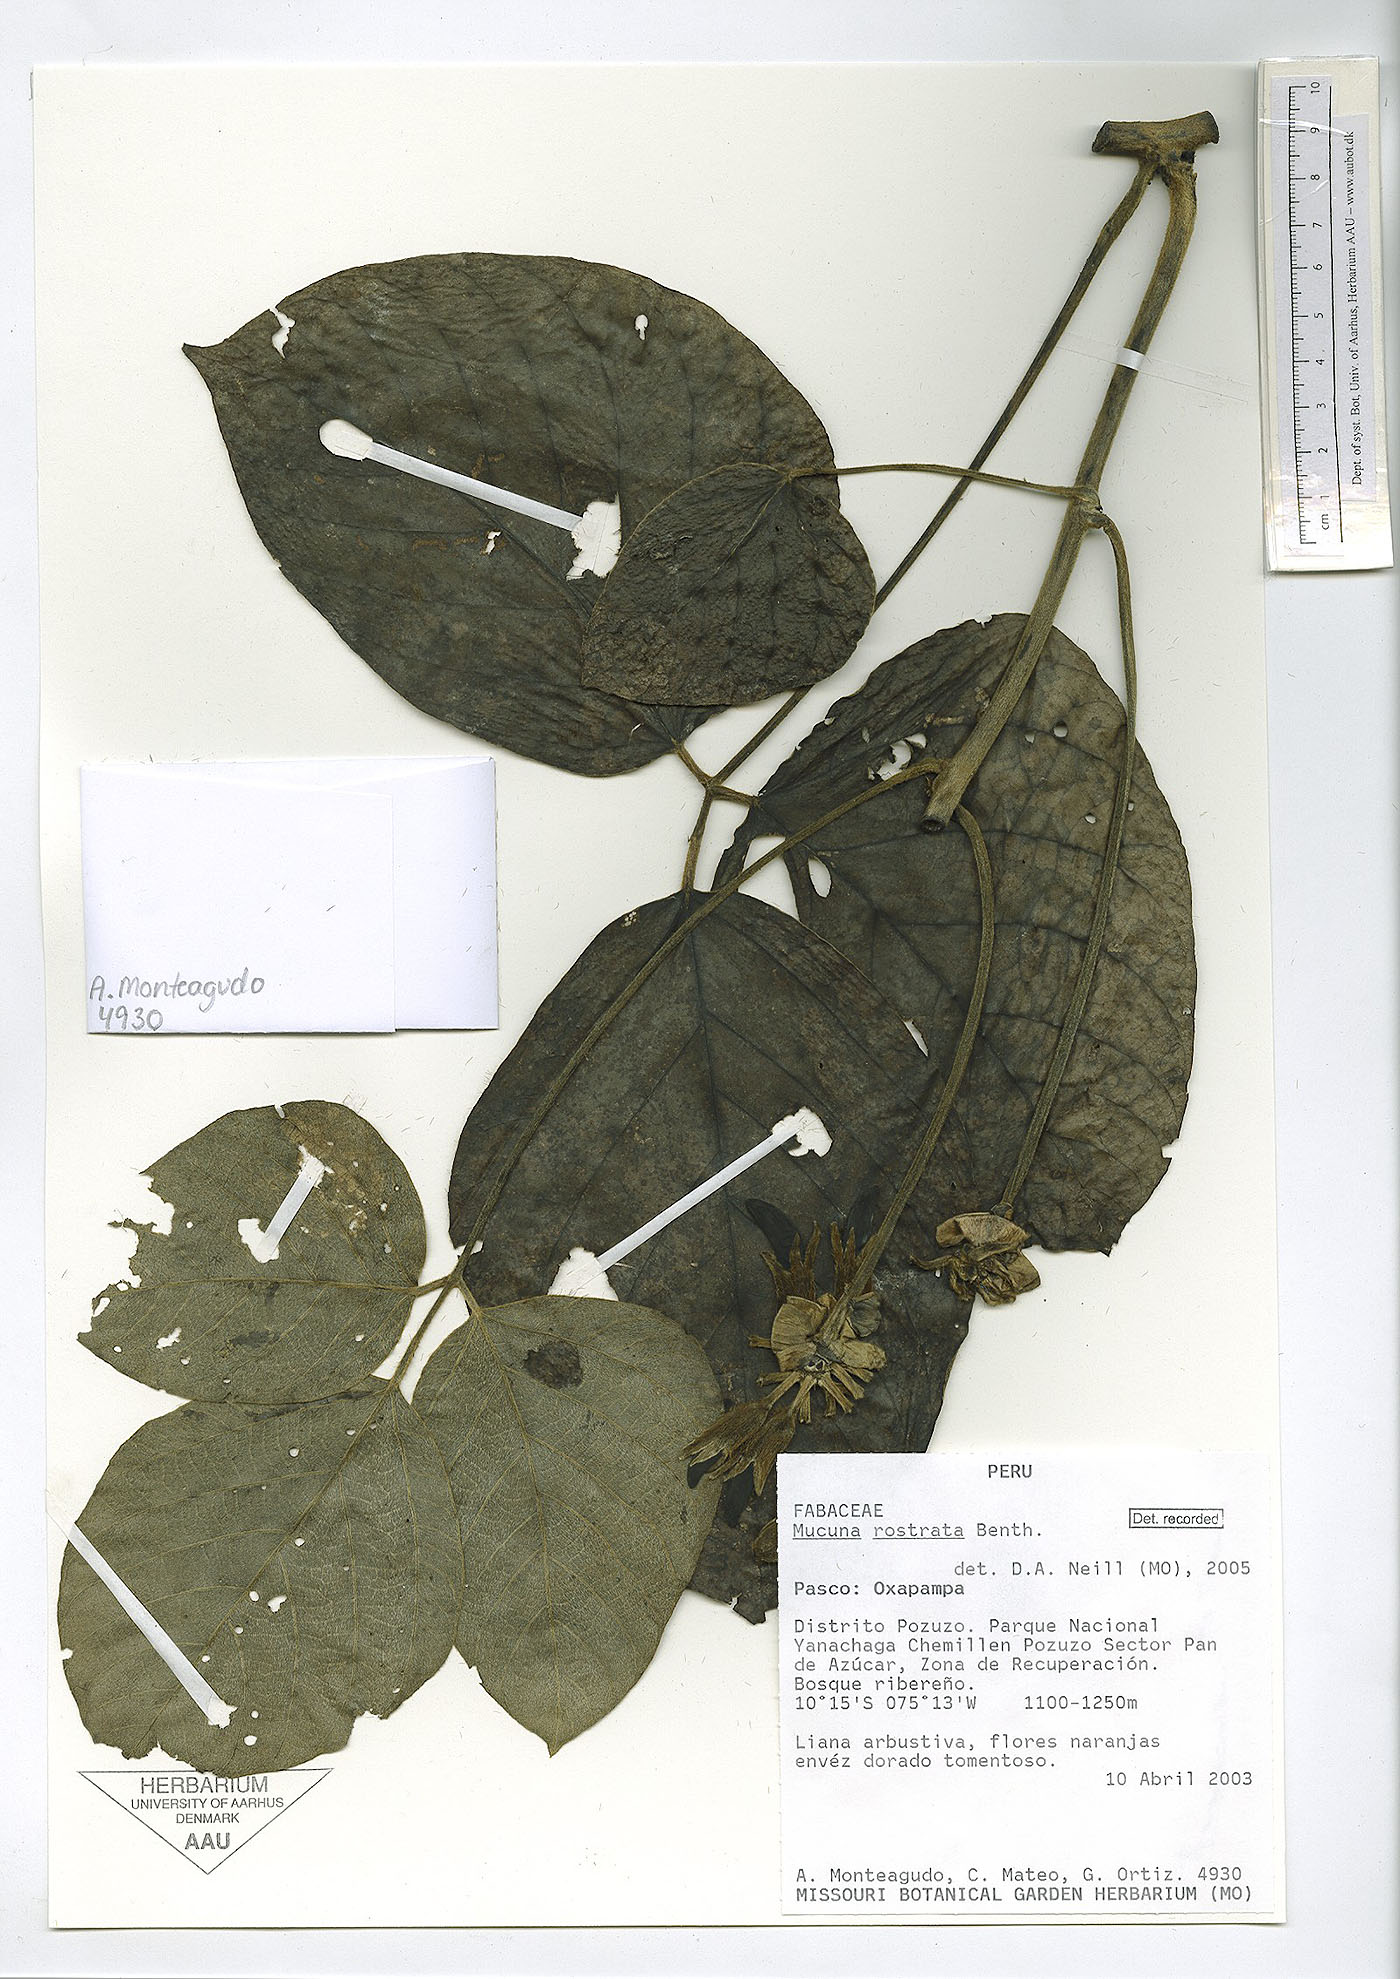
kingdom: Plantae
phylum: Tracheophyta
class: Magnoliopsida
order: Fabales
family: Fabaceae
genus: Mucuna
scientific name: Mucuna rostrata
